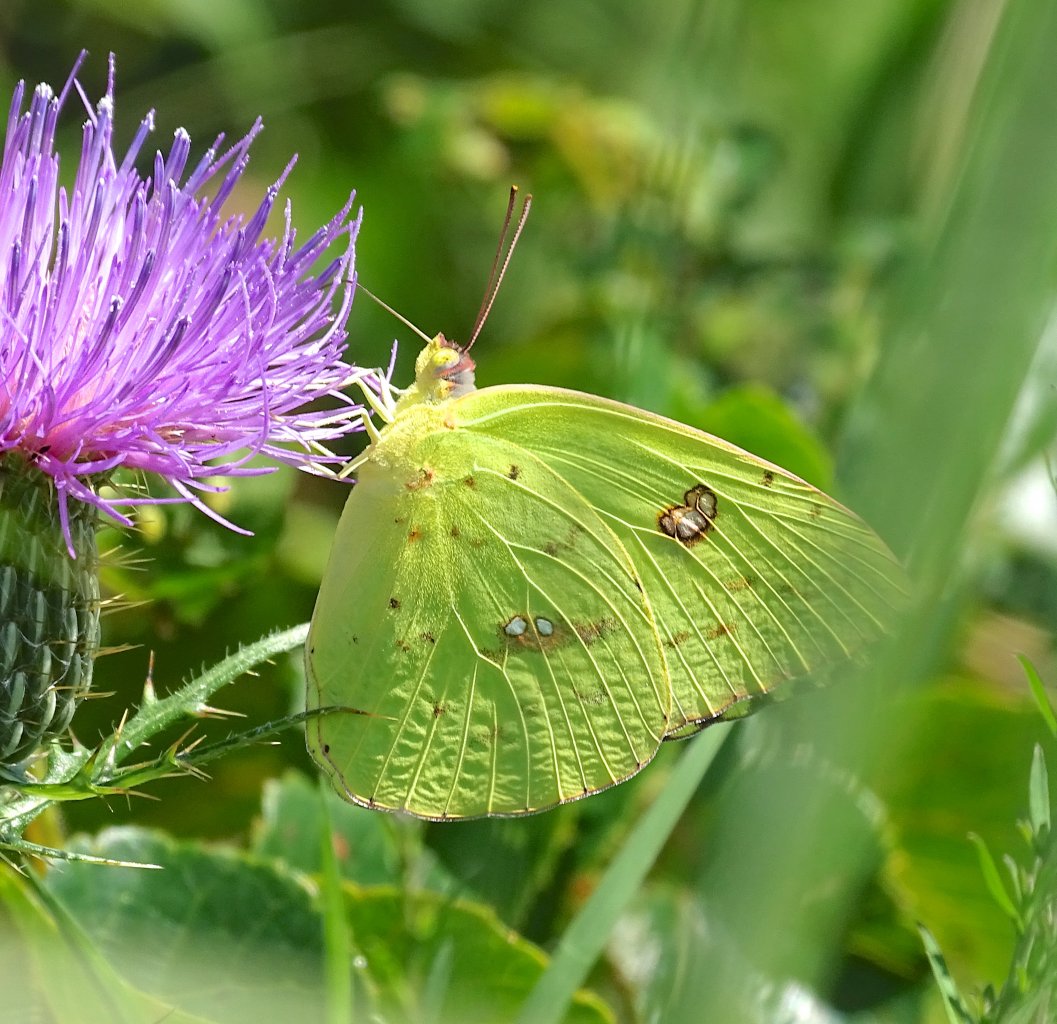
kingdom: Animalia
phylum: Arthropoda
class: Insecta
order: Lepidoptera
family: Pieridae
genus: Phoebis
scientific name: Phoebis sennae
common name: Cloudless Sulphur
